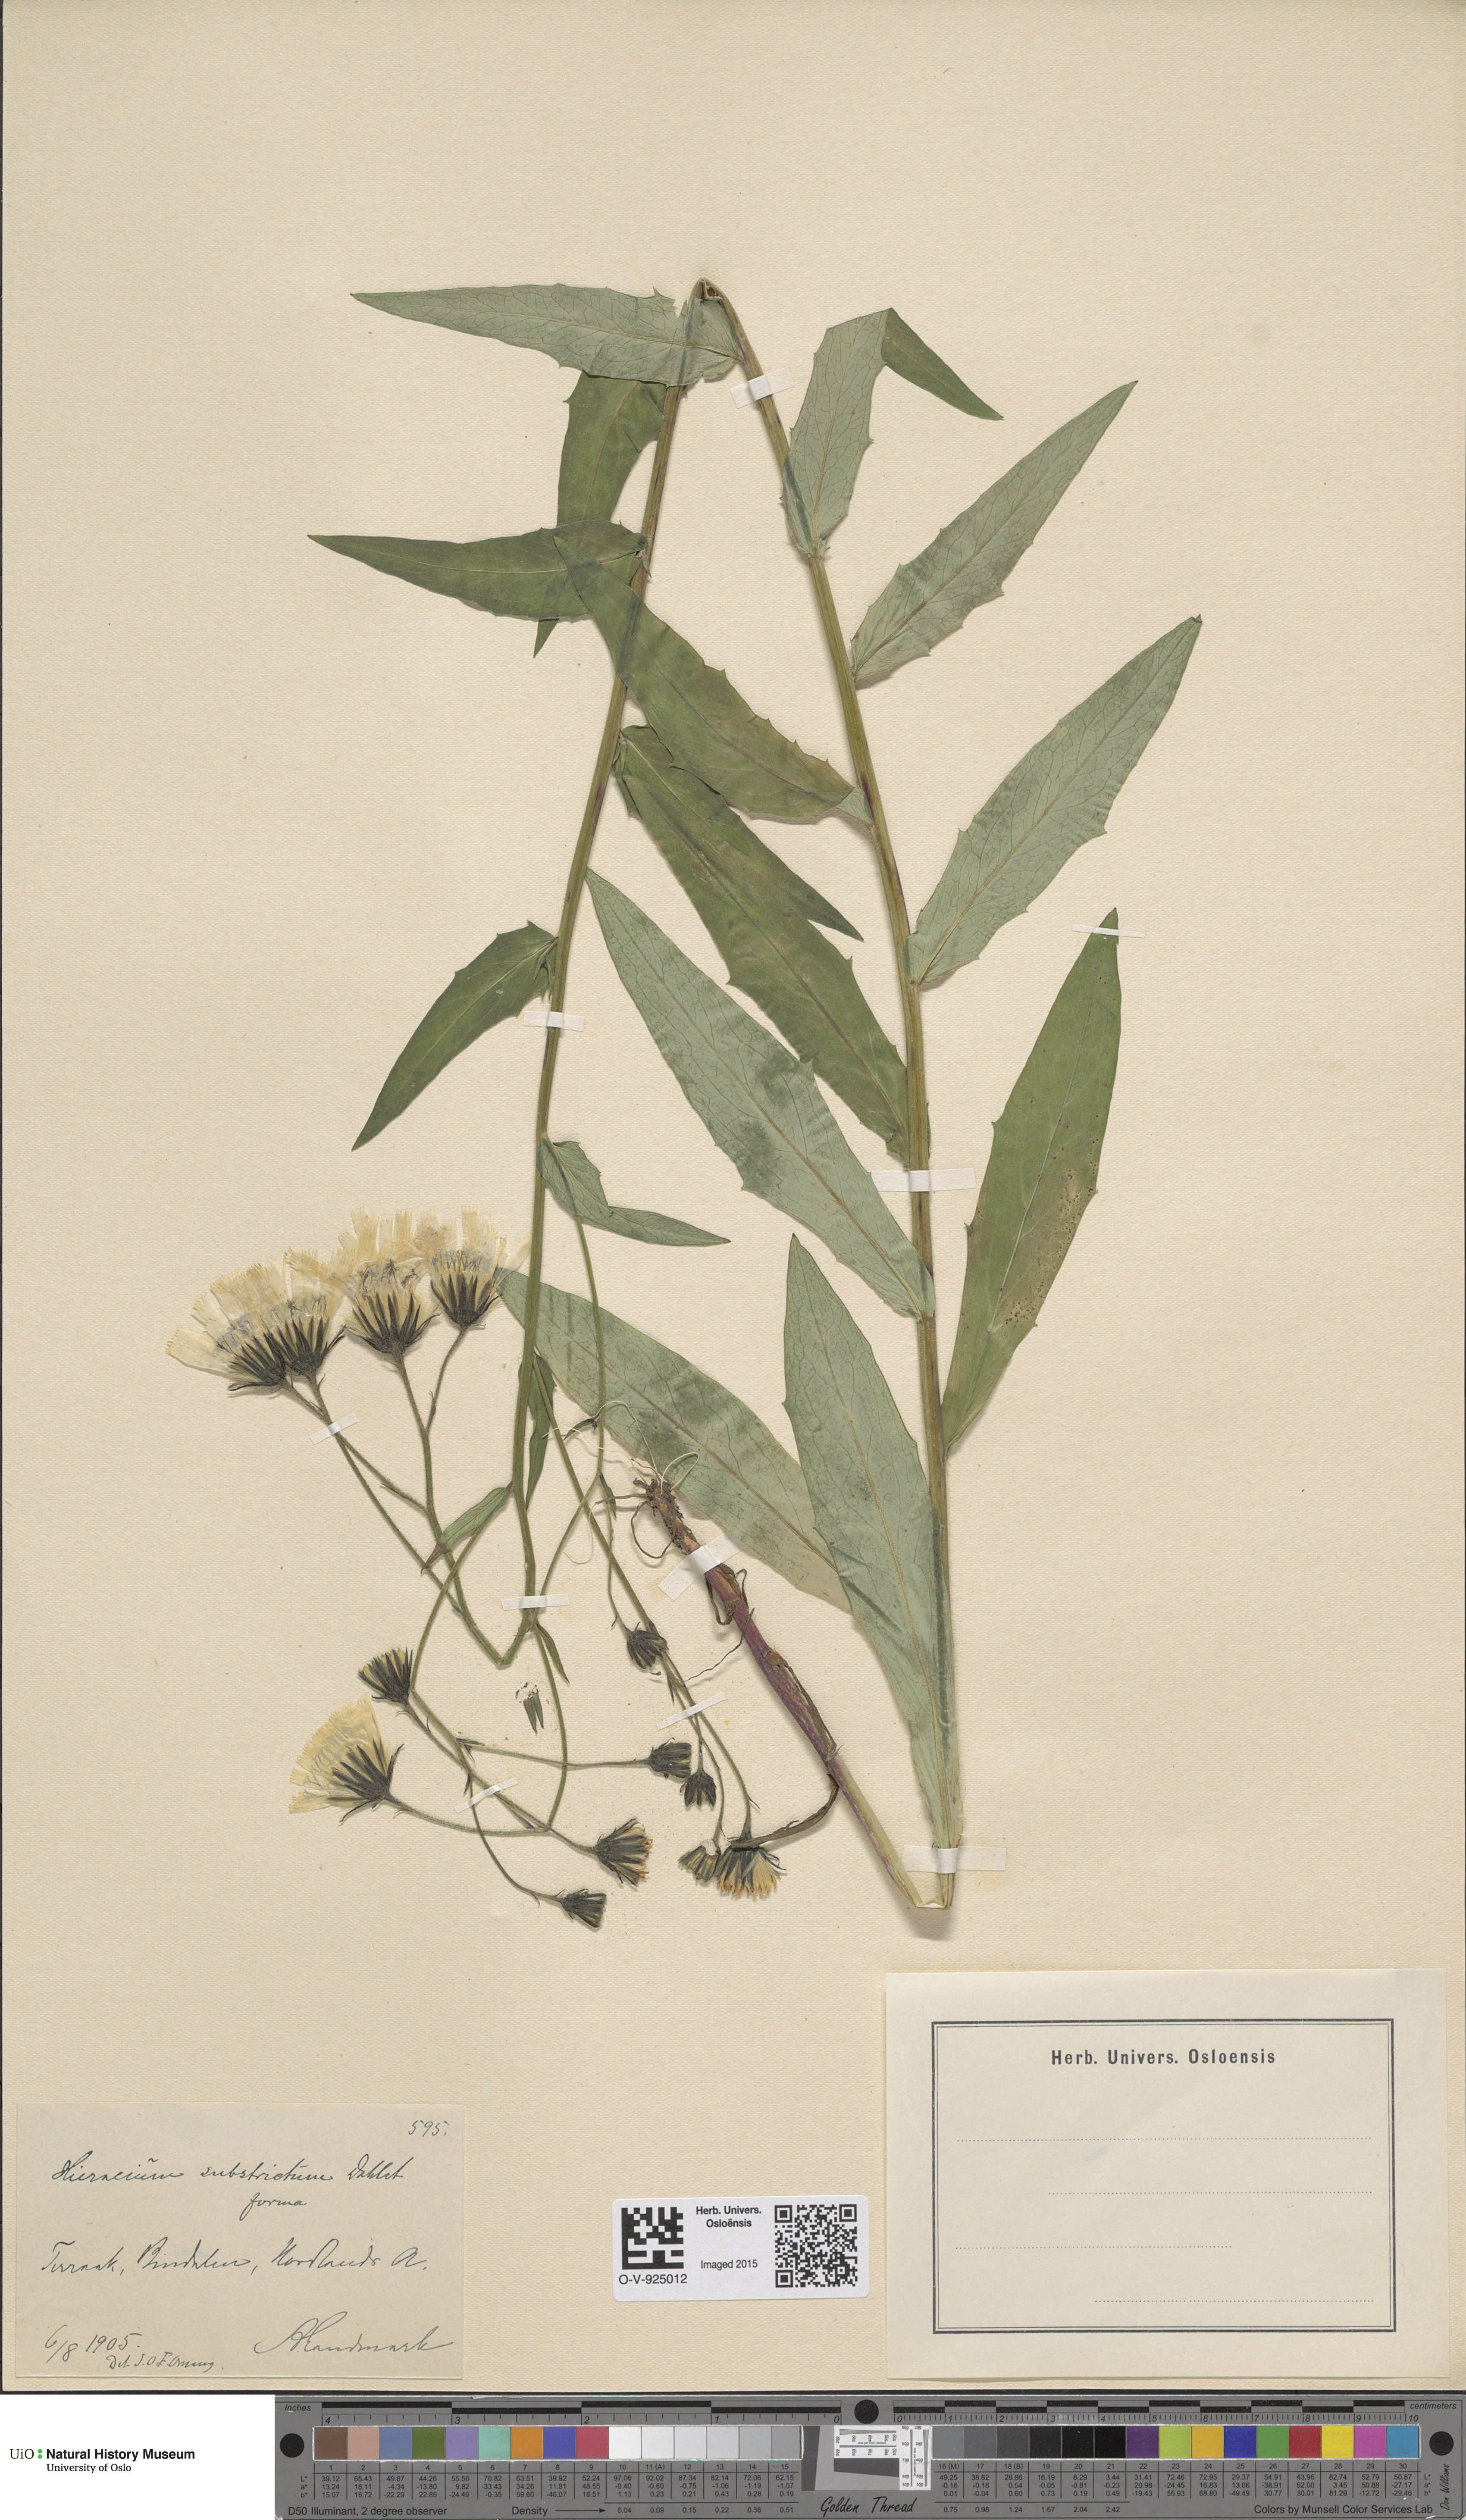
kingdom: Plantae
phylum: Tracheophyta
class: Magnoliopsida
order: Asterales
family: Asteraceae
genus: Hieracium
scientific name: Hieracium
